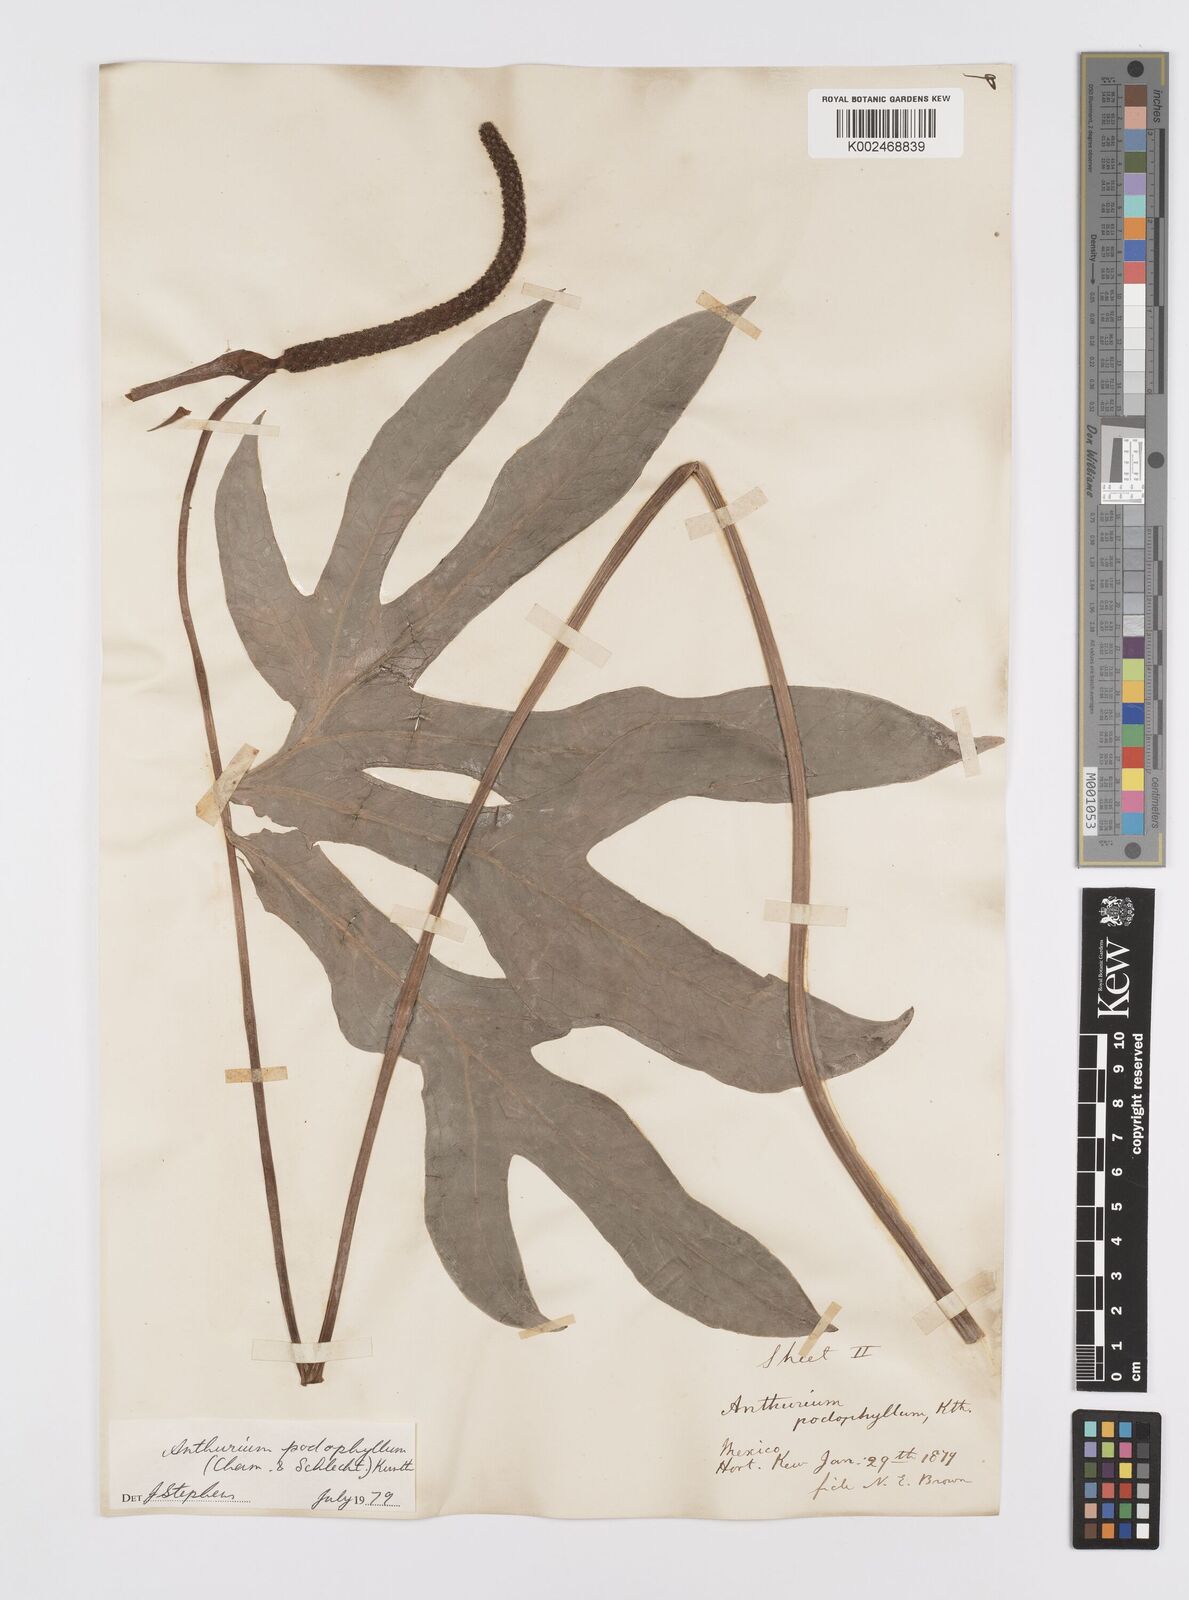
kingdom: Plantae
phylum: Tracheophyta
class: Liliopsida
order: Alismatales
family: Araceae
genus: Anthurium
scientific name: Anthurium podophyllum
